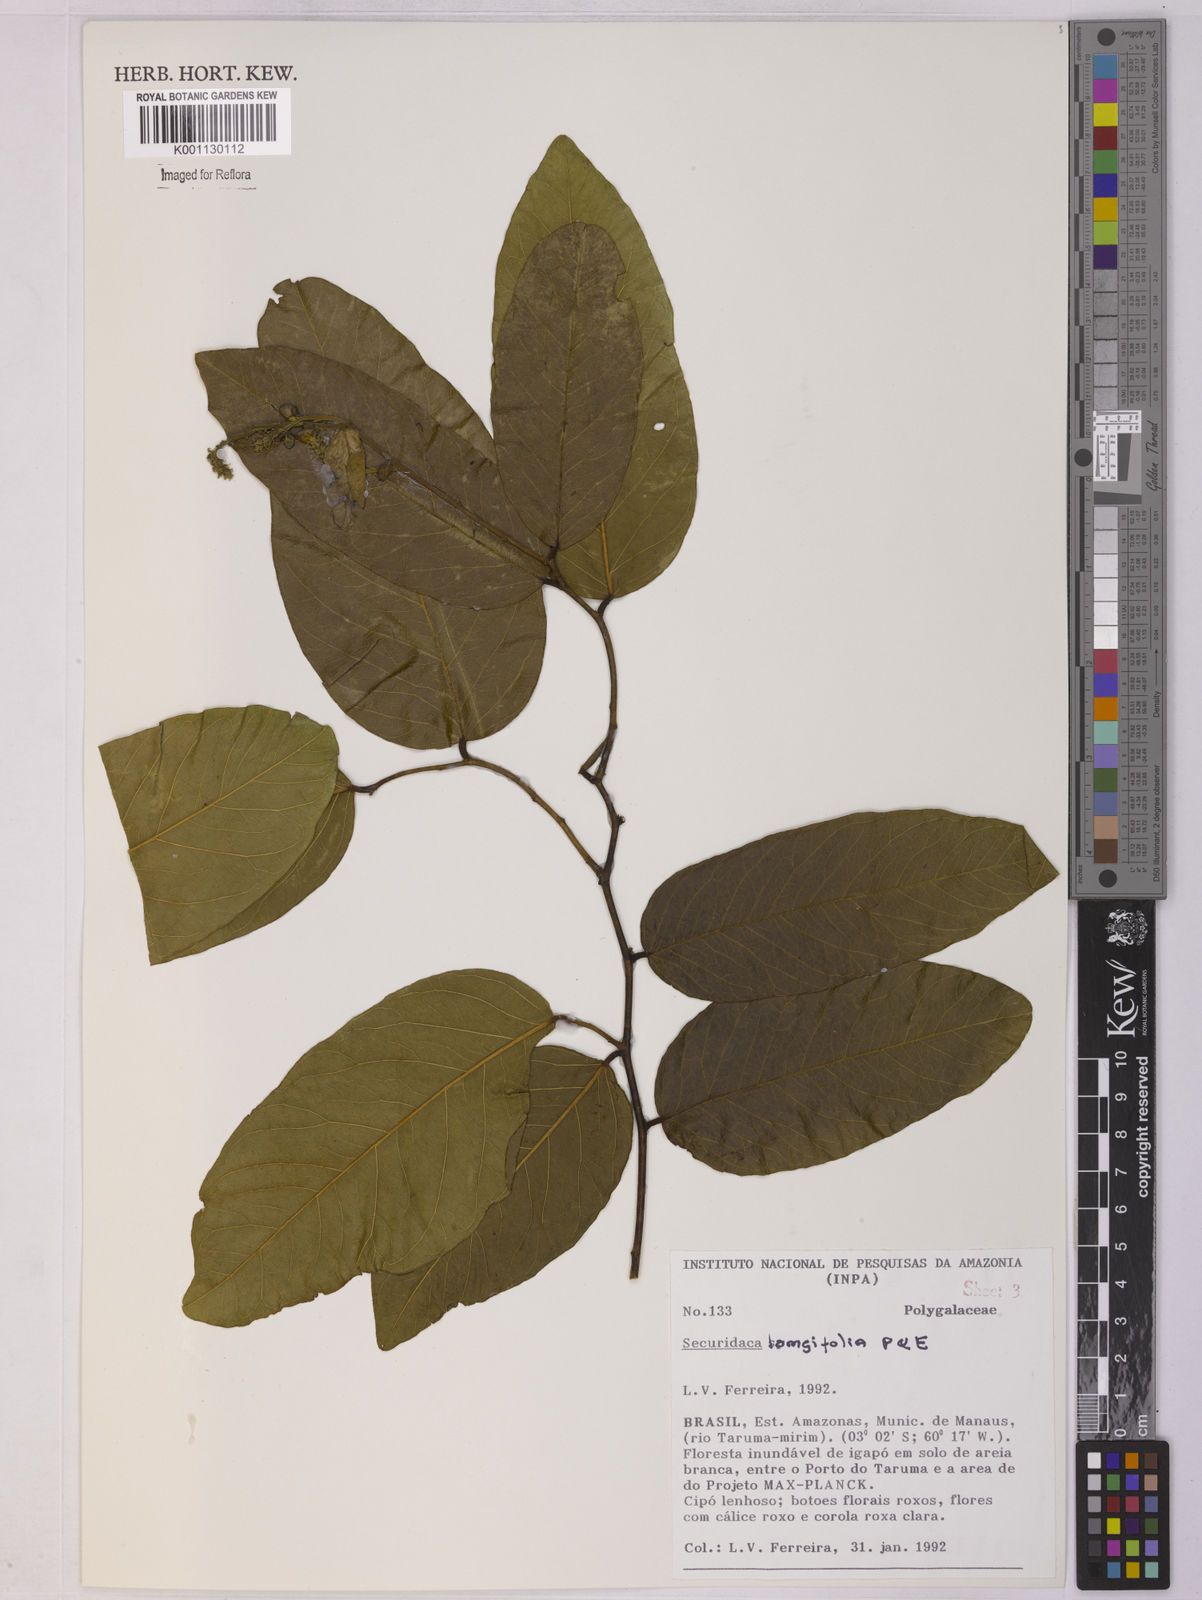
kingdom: Plantae
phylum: Tracheophyta
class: Magnoliopsida
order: Fabales
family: Polygalaceae
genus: Securidaca
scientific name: Securidaca longifolia
